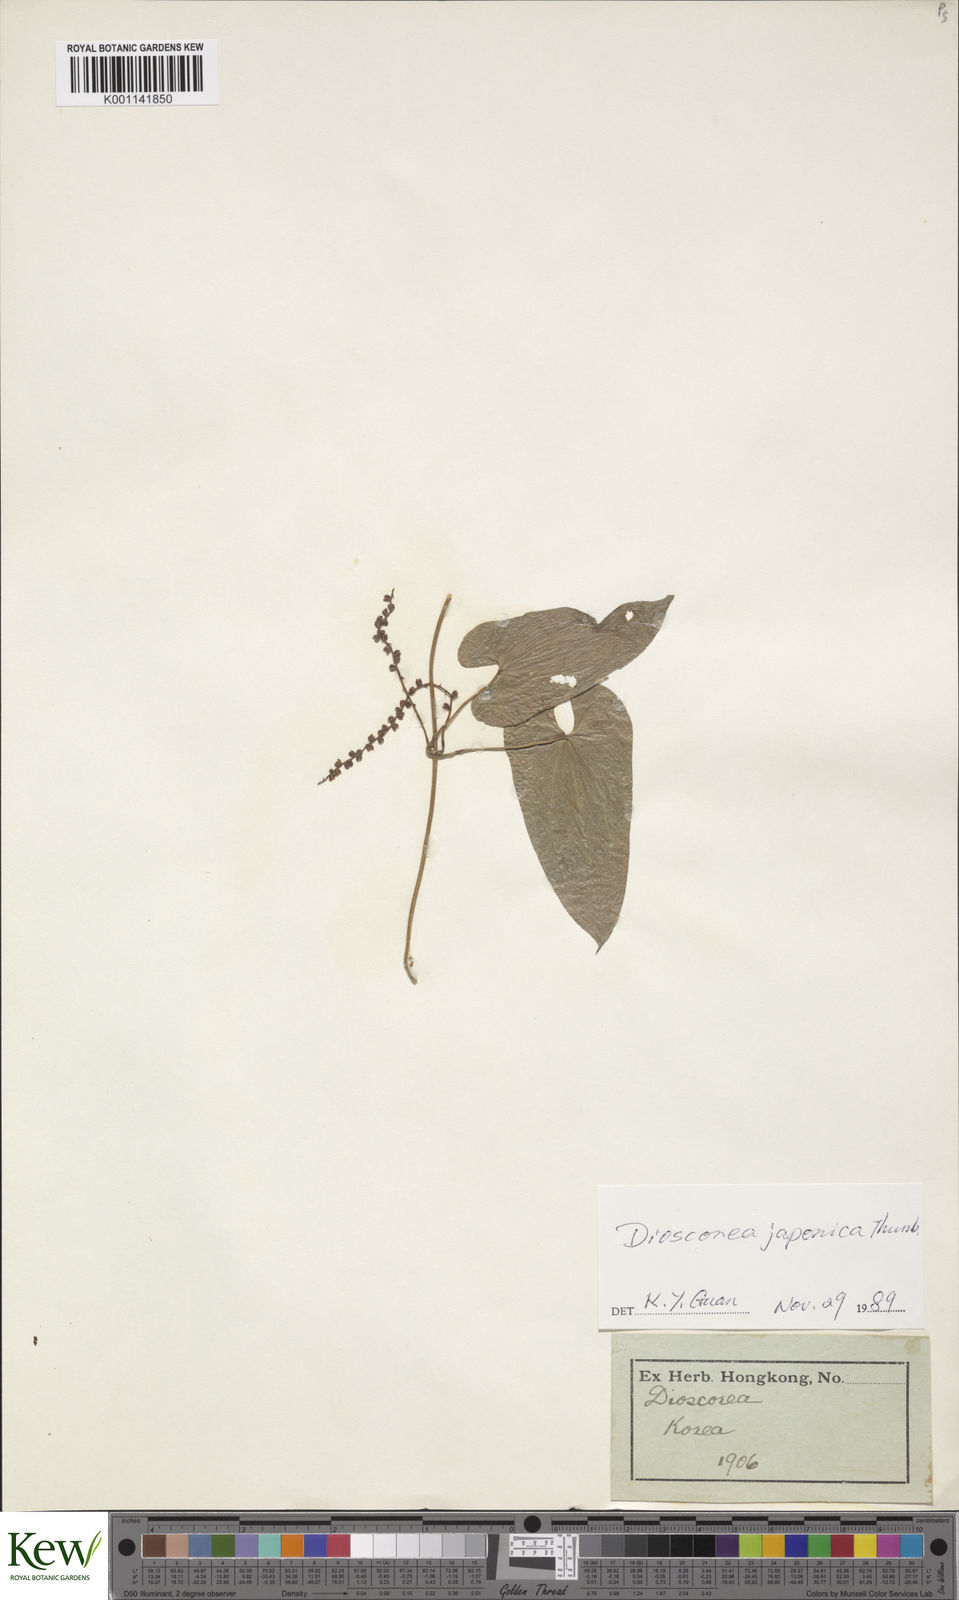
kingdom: Plantae
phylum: Tracheophyta
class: Liliopsida
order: Dioscoreales
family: Dioscoreaceae
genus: Dioscorea
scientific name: Dioscorea japonica
